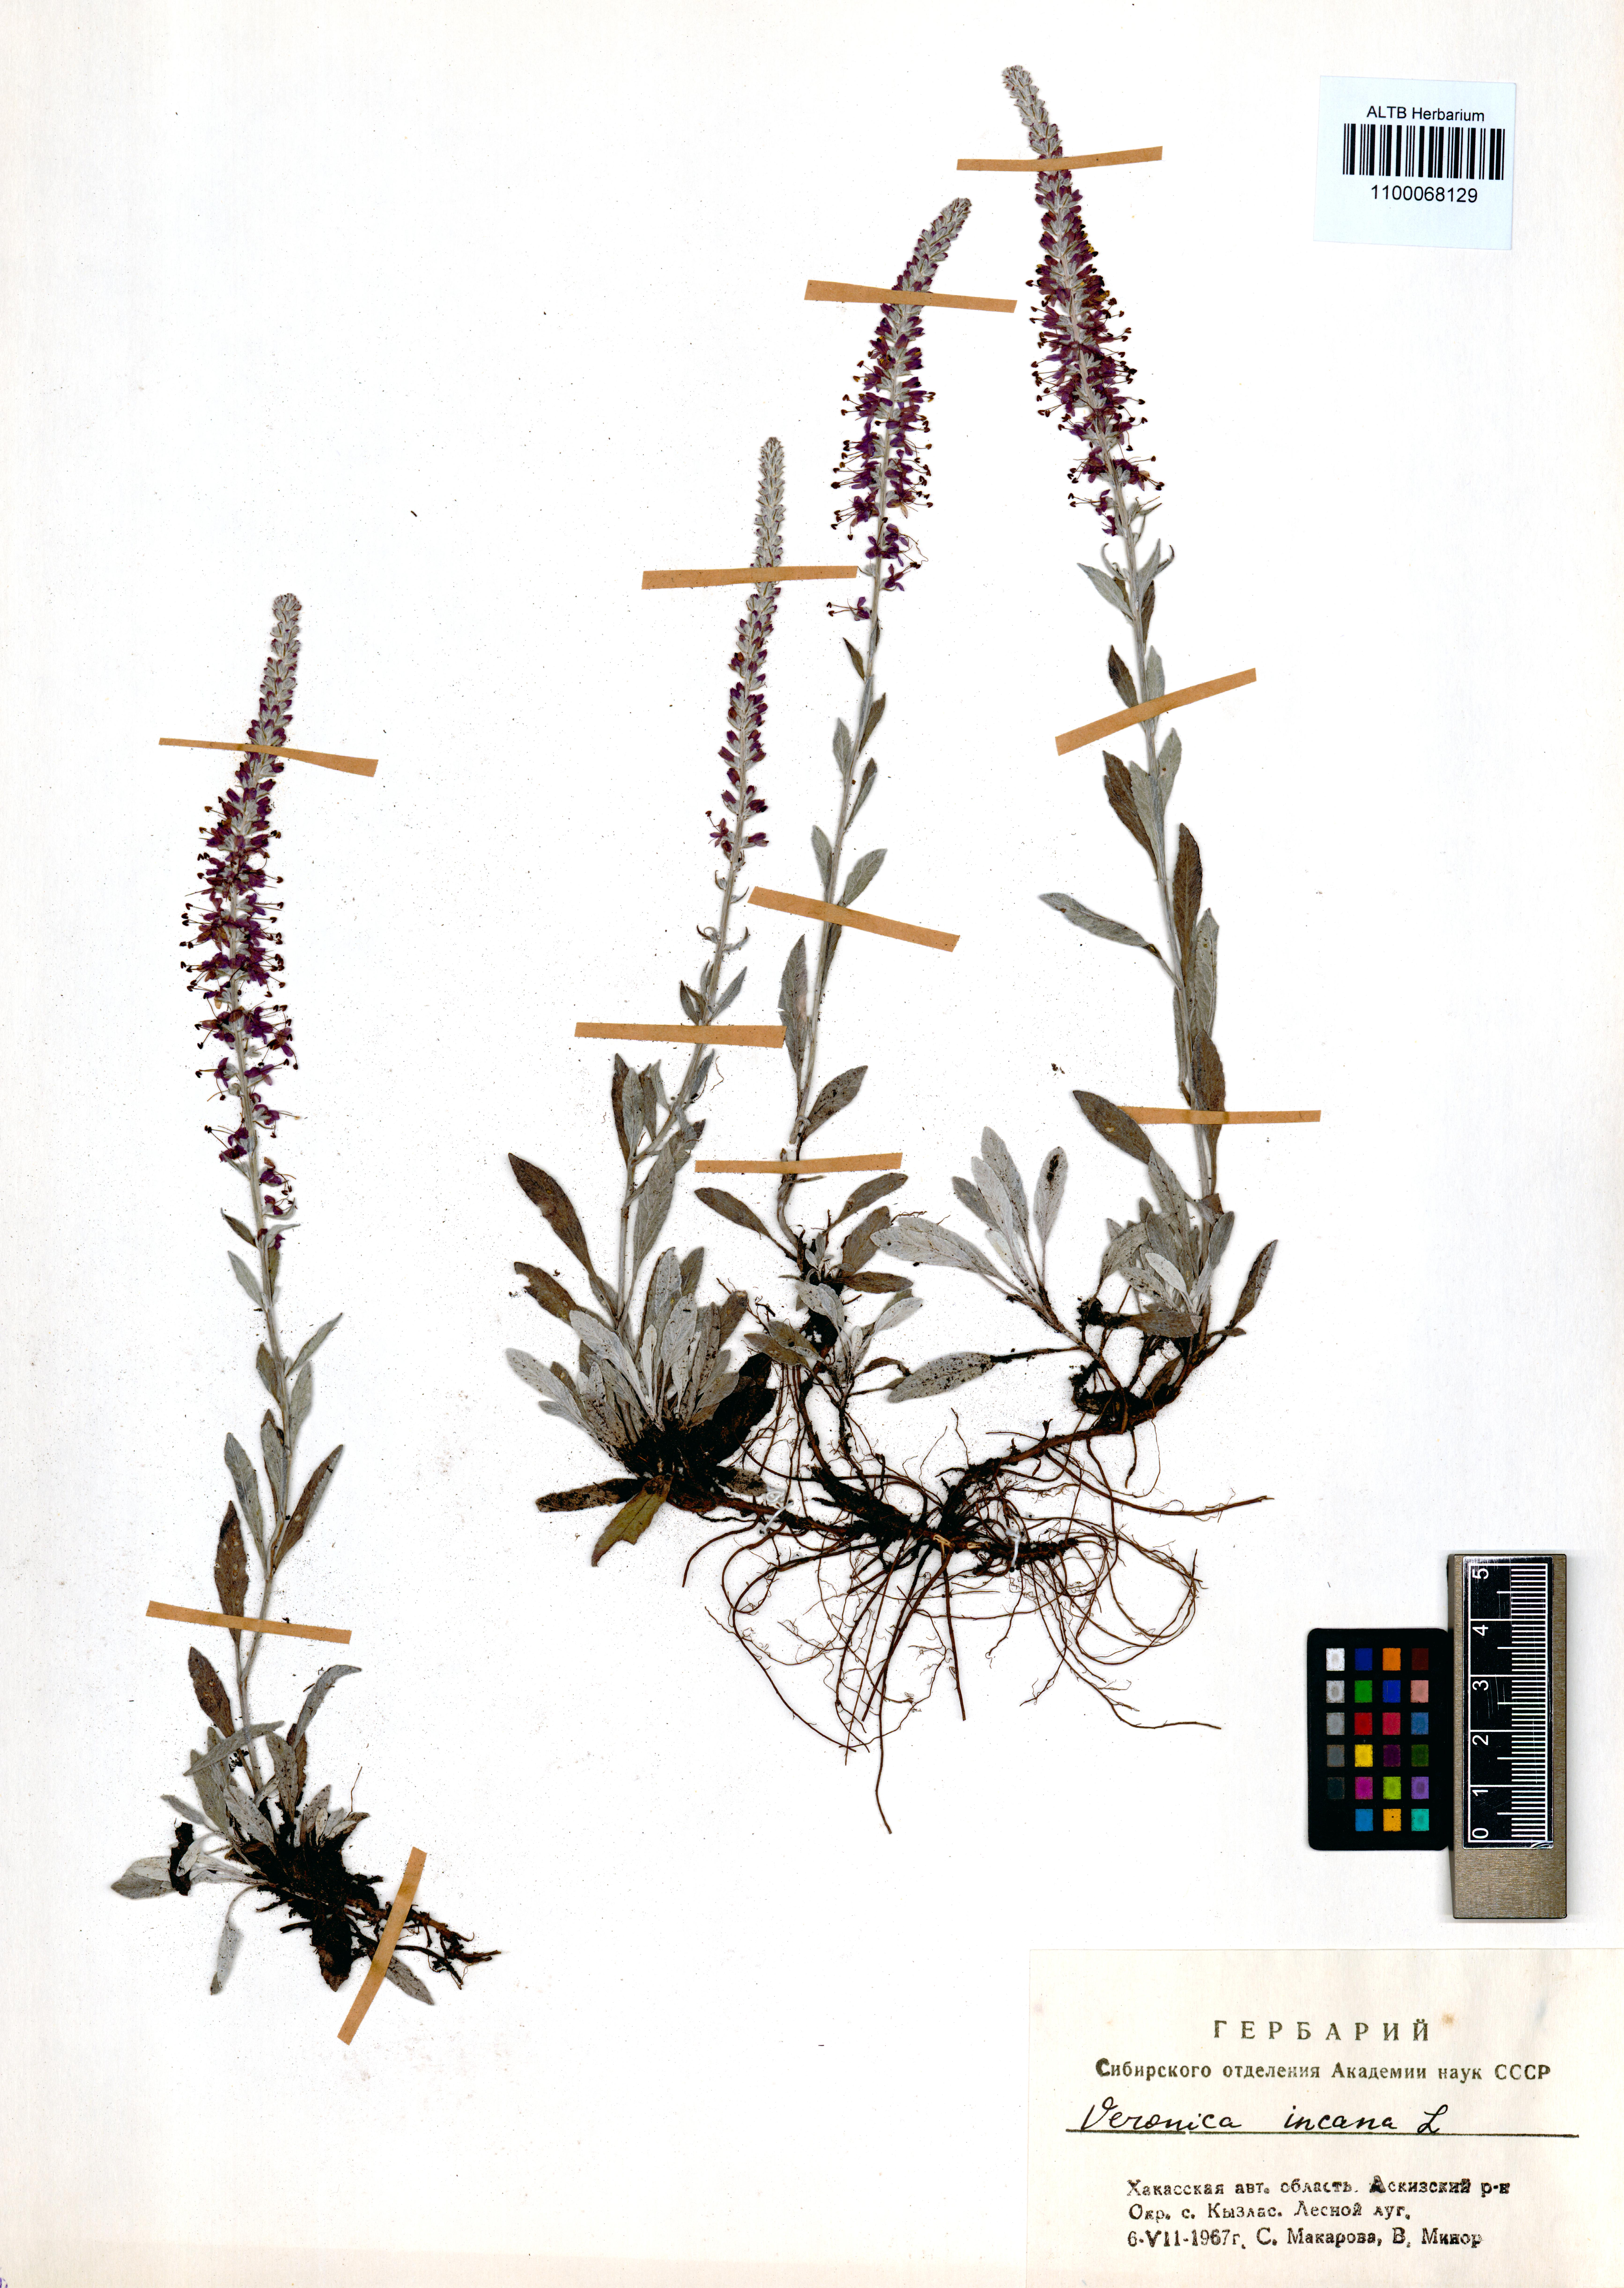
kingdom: Plantae
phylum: Tracheophyta
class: Magnoliopsida
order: Lamiales
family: Plantaginaceae
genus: Veronica
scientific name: Veronica incana
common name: Silver speedwell
